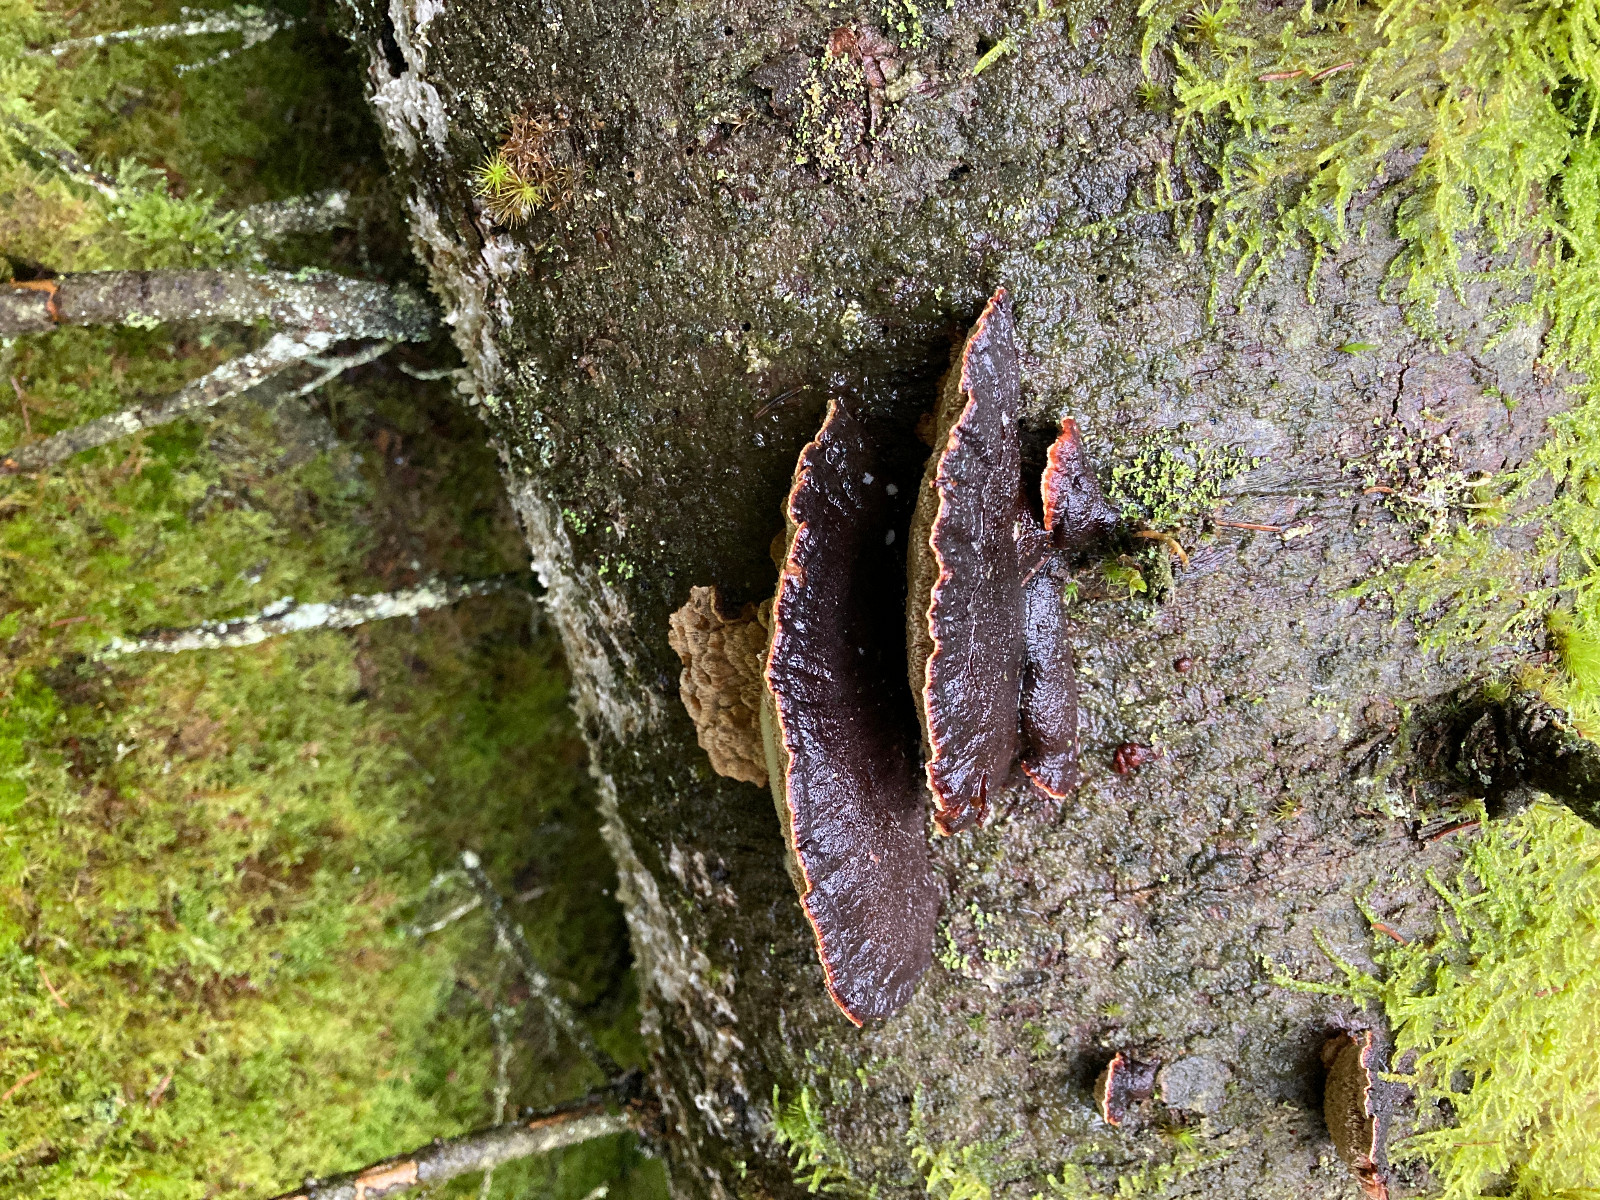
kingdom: Fungi
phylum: Basidiomycota
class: Agaricomycetes
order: Polyporales
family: Ischnodermataceae
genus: Ischnoderma
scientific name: Ischnoderma benzoinum
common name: gran-tjæreporesvamp
